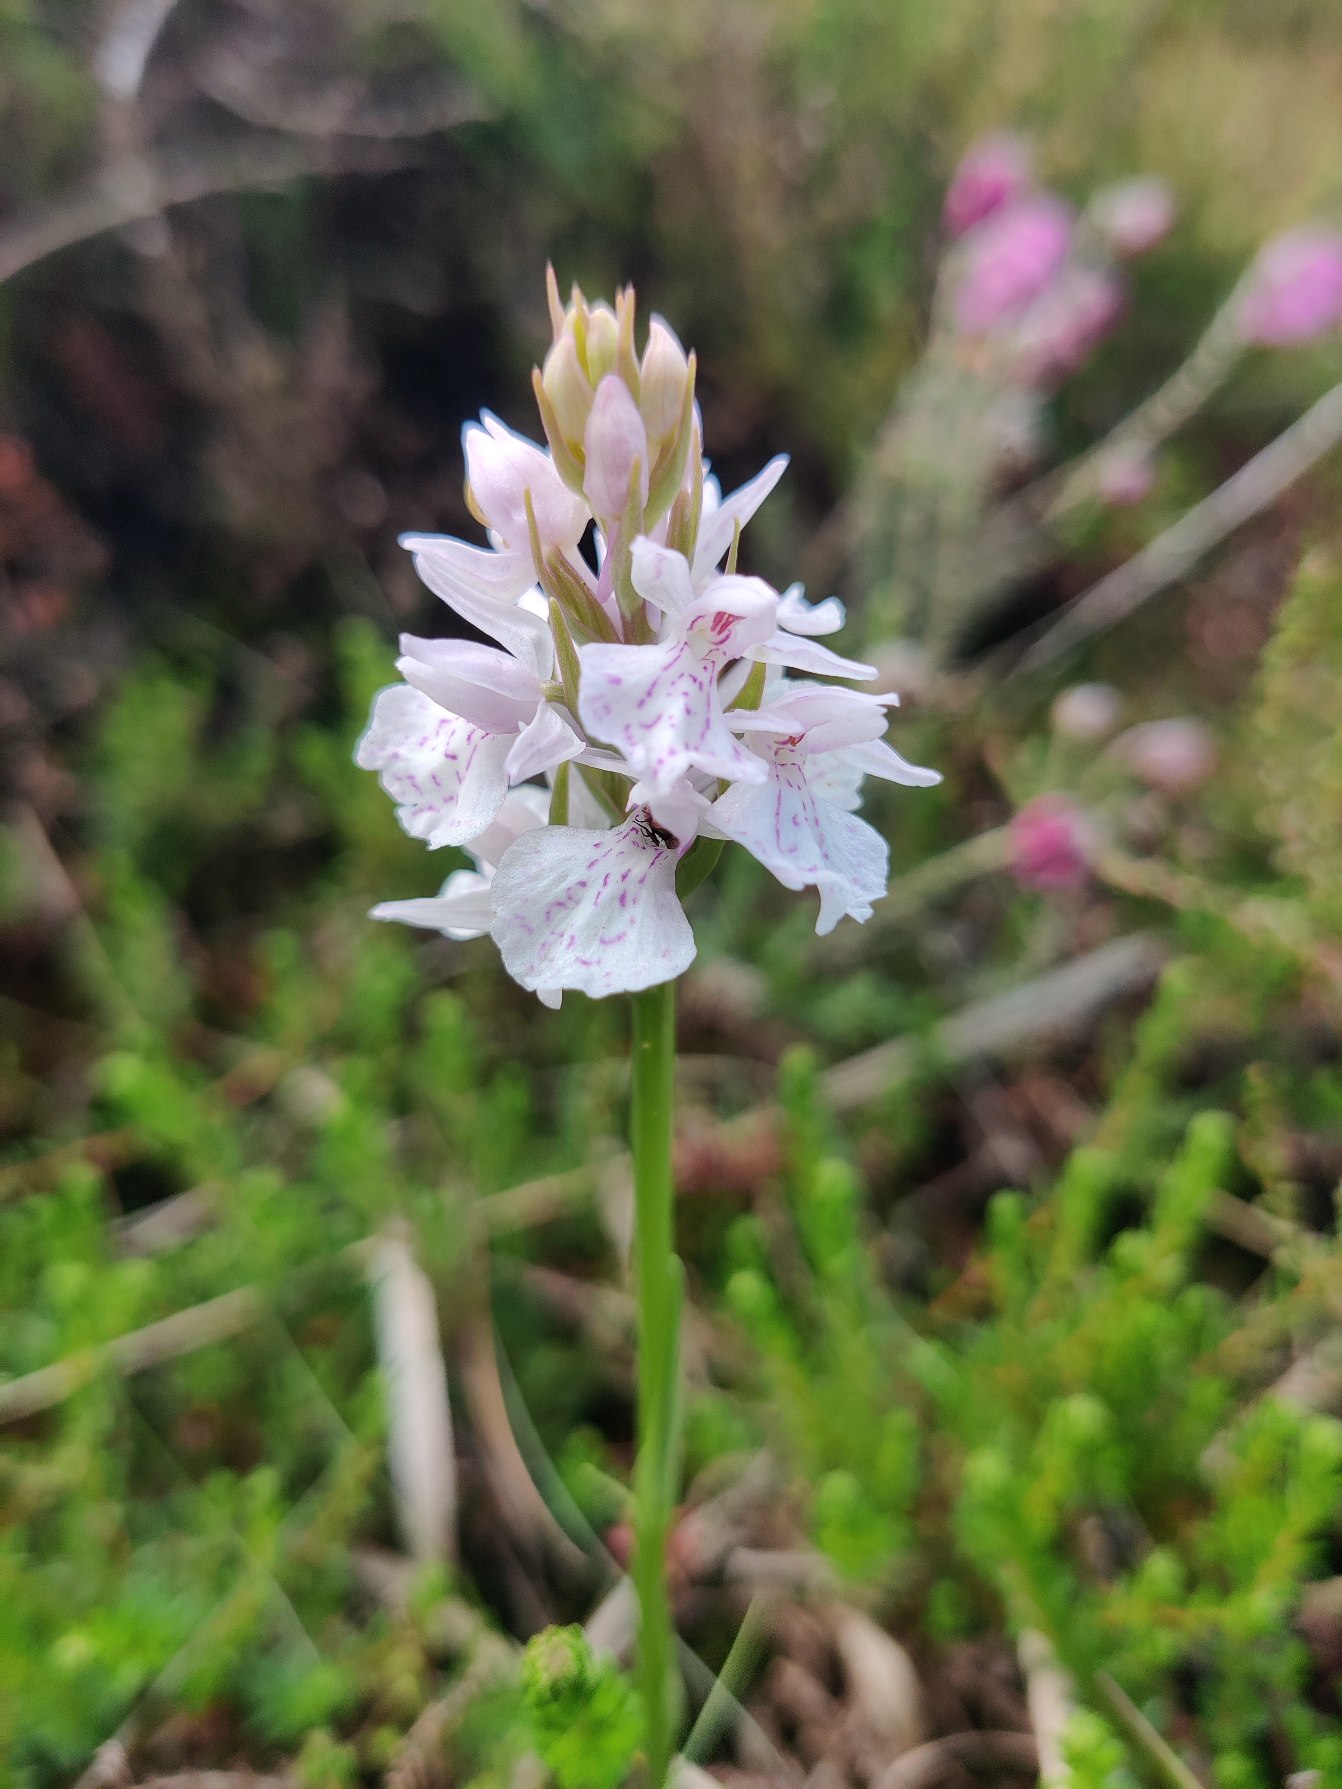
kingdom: Plantae
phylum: Tracheophyta
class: Liliopsida
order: Asparagales
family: Orchidaceae
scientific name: Orchidaceae
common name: Orkidéfamilien
